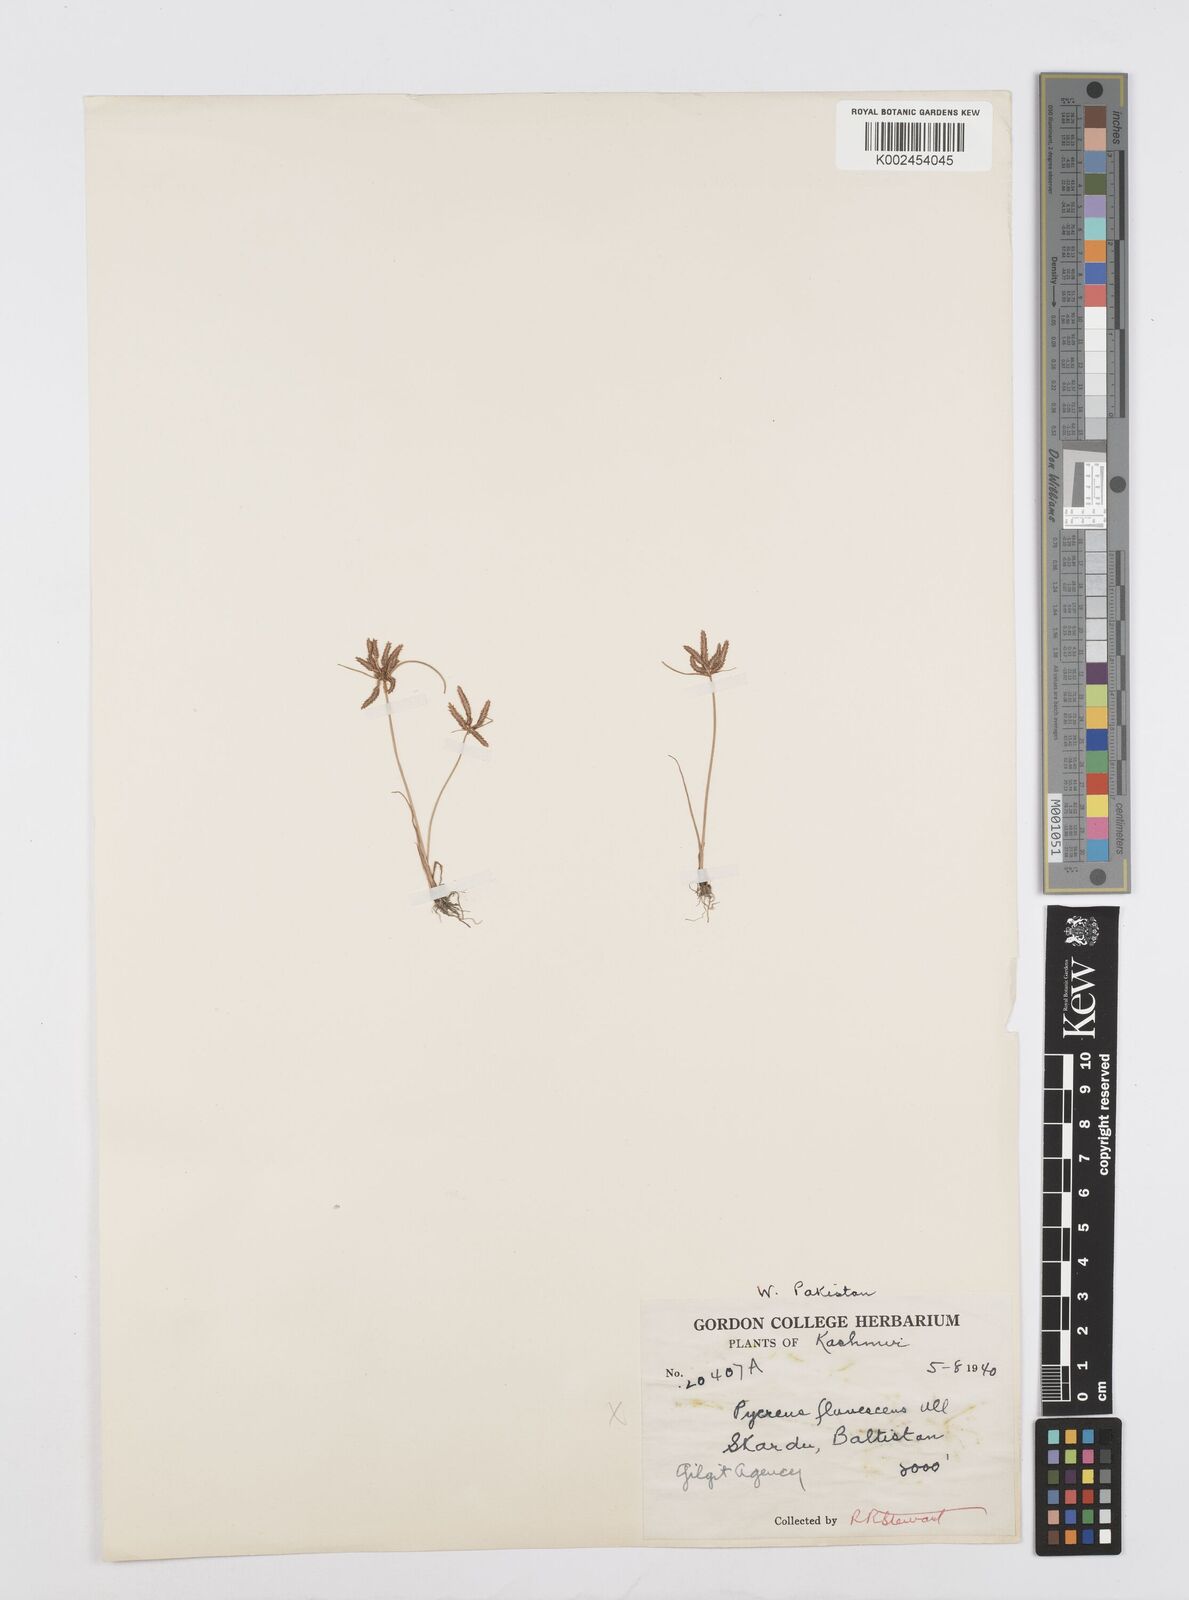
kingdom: Plantae
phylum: Tracheophyta
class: Liliopsida
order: Poales
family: Cyperaceae
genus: Cyperus
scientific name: Cyperus flavidus
